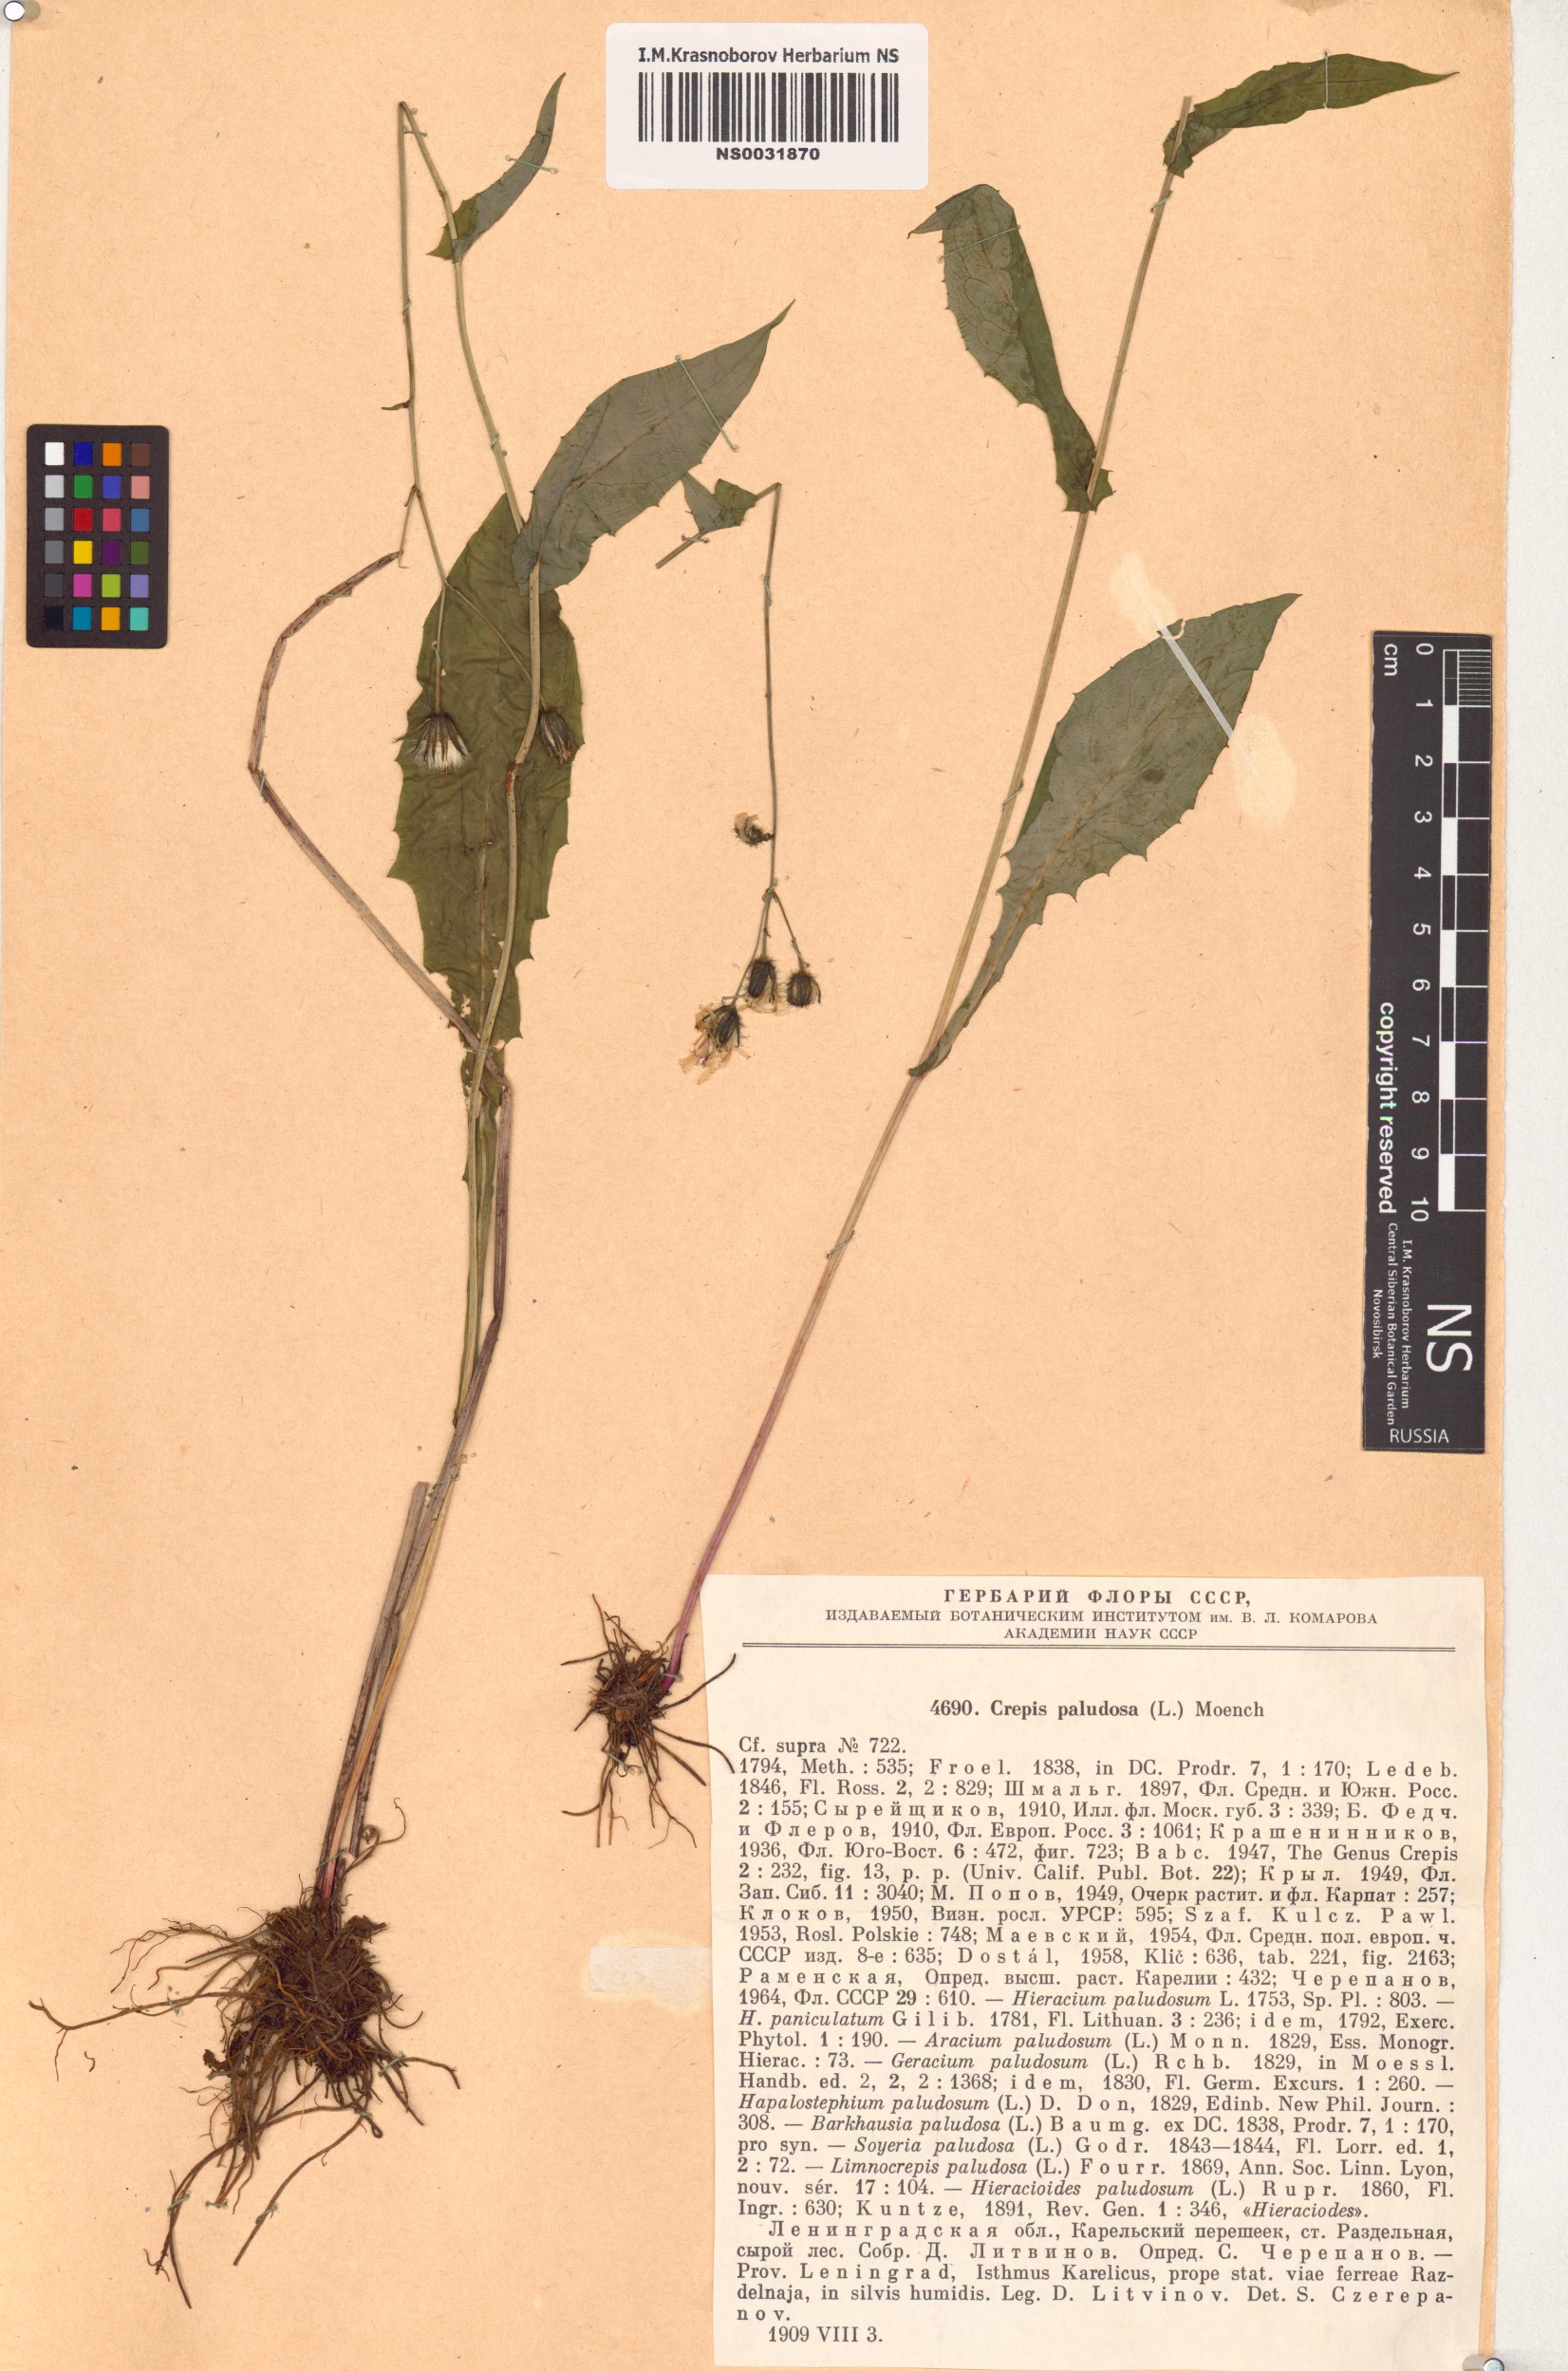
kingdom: Plantae
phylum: Tracheophyta
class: Magnoliopsida
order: Asterales
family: Asteraceae
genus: Crepis
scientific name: Crepis paludosa
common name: Marsh hawk's-beard
